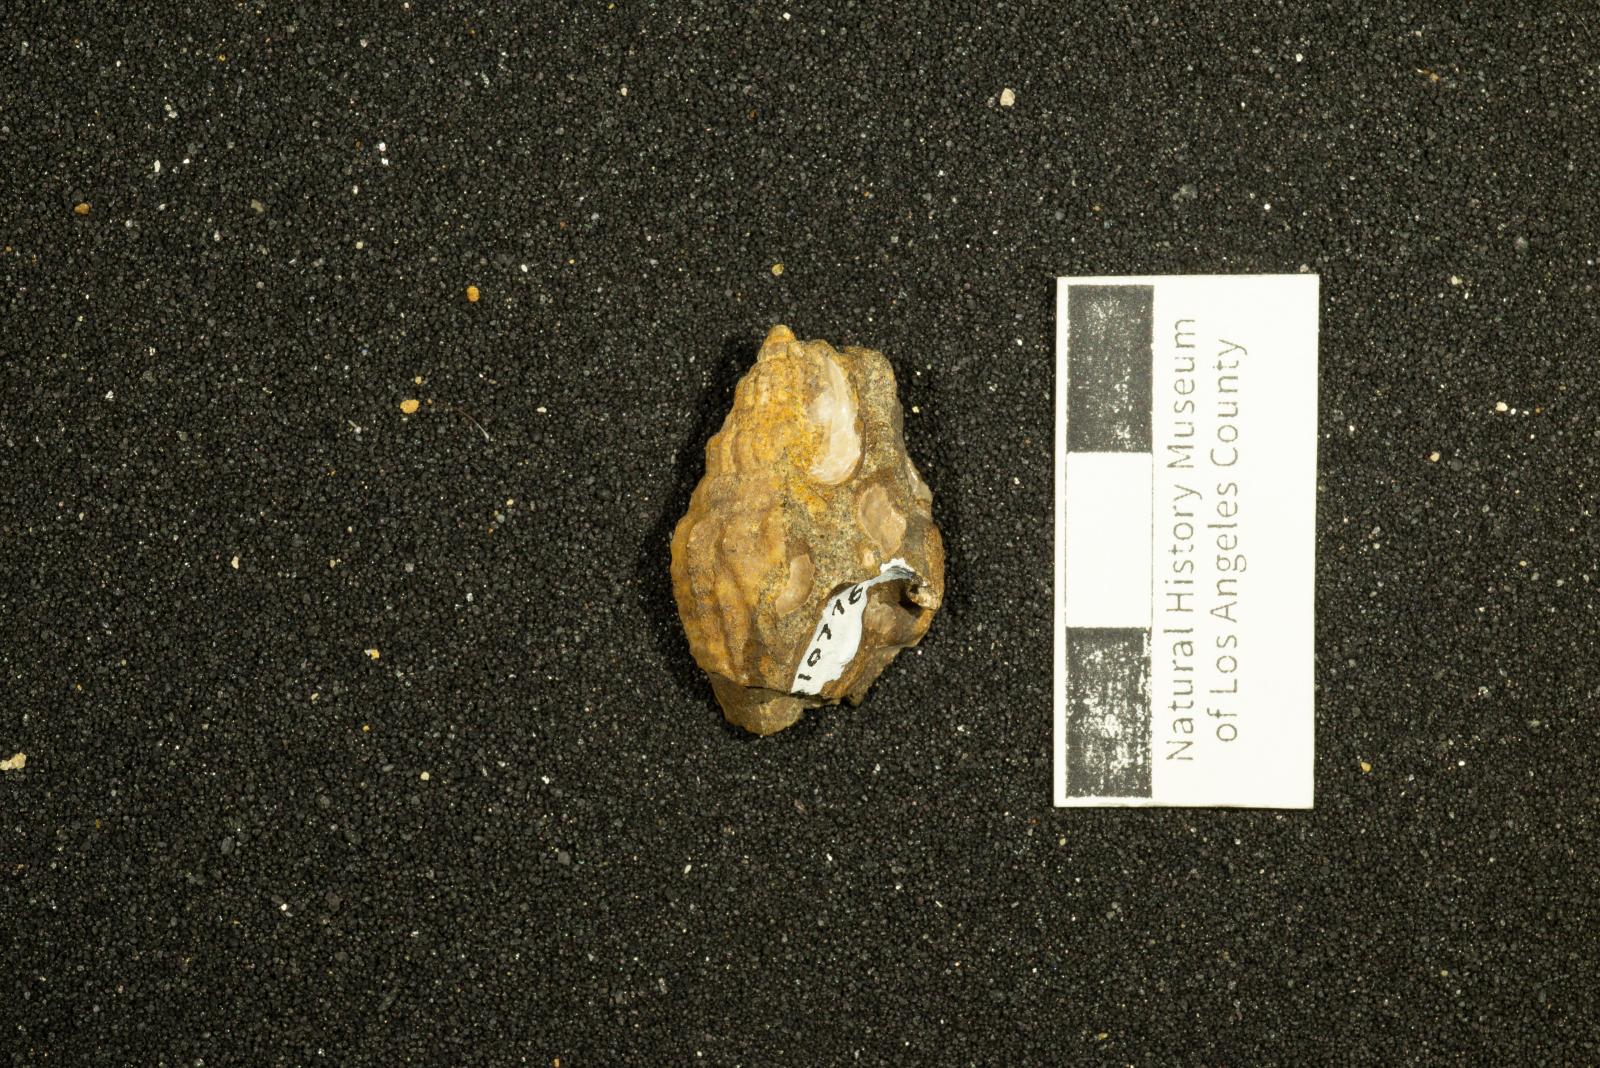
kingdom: Animalia
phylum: Mollusca
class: Gastropoda
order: Neogastropoda
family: Volutidae
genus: Carota
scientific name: Carota Cordiera mitraeformis
